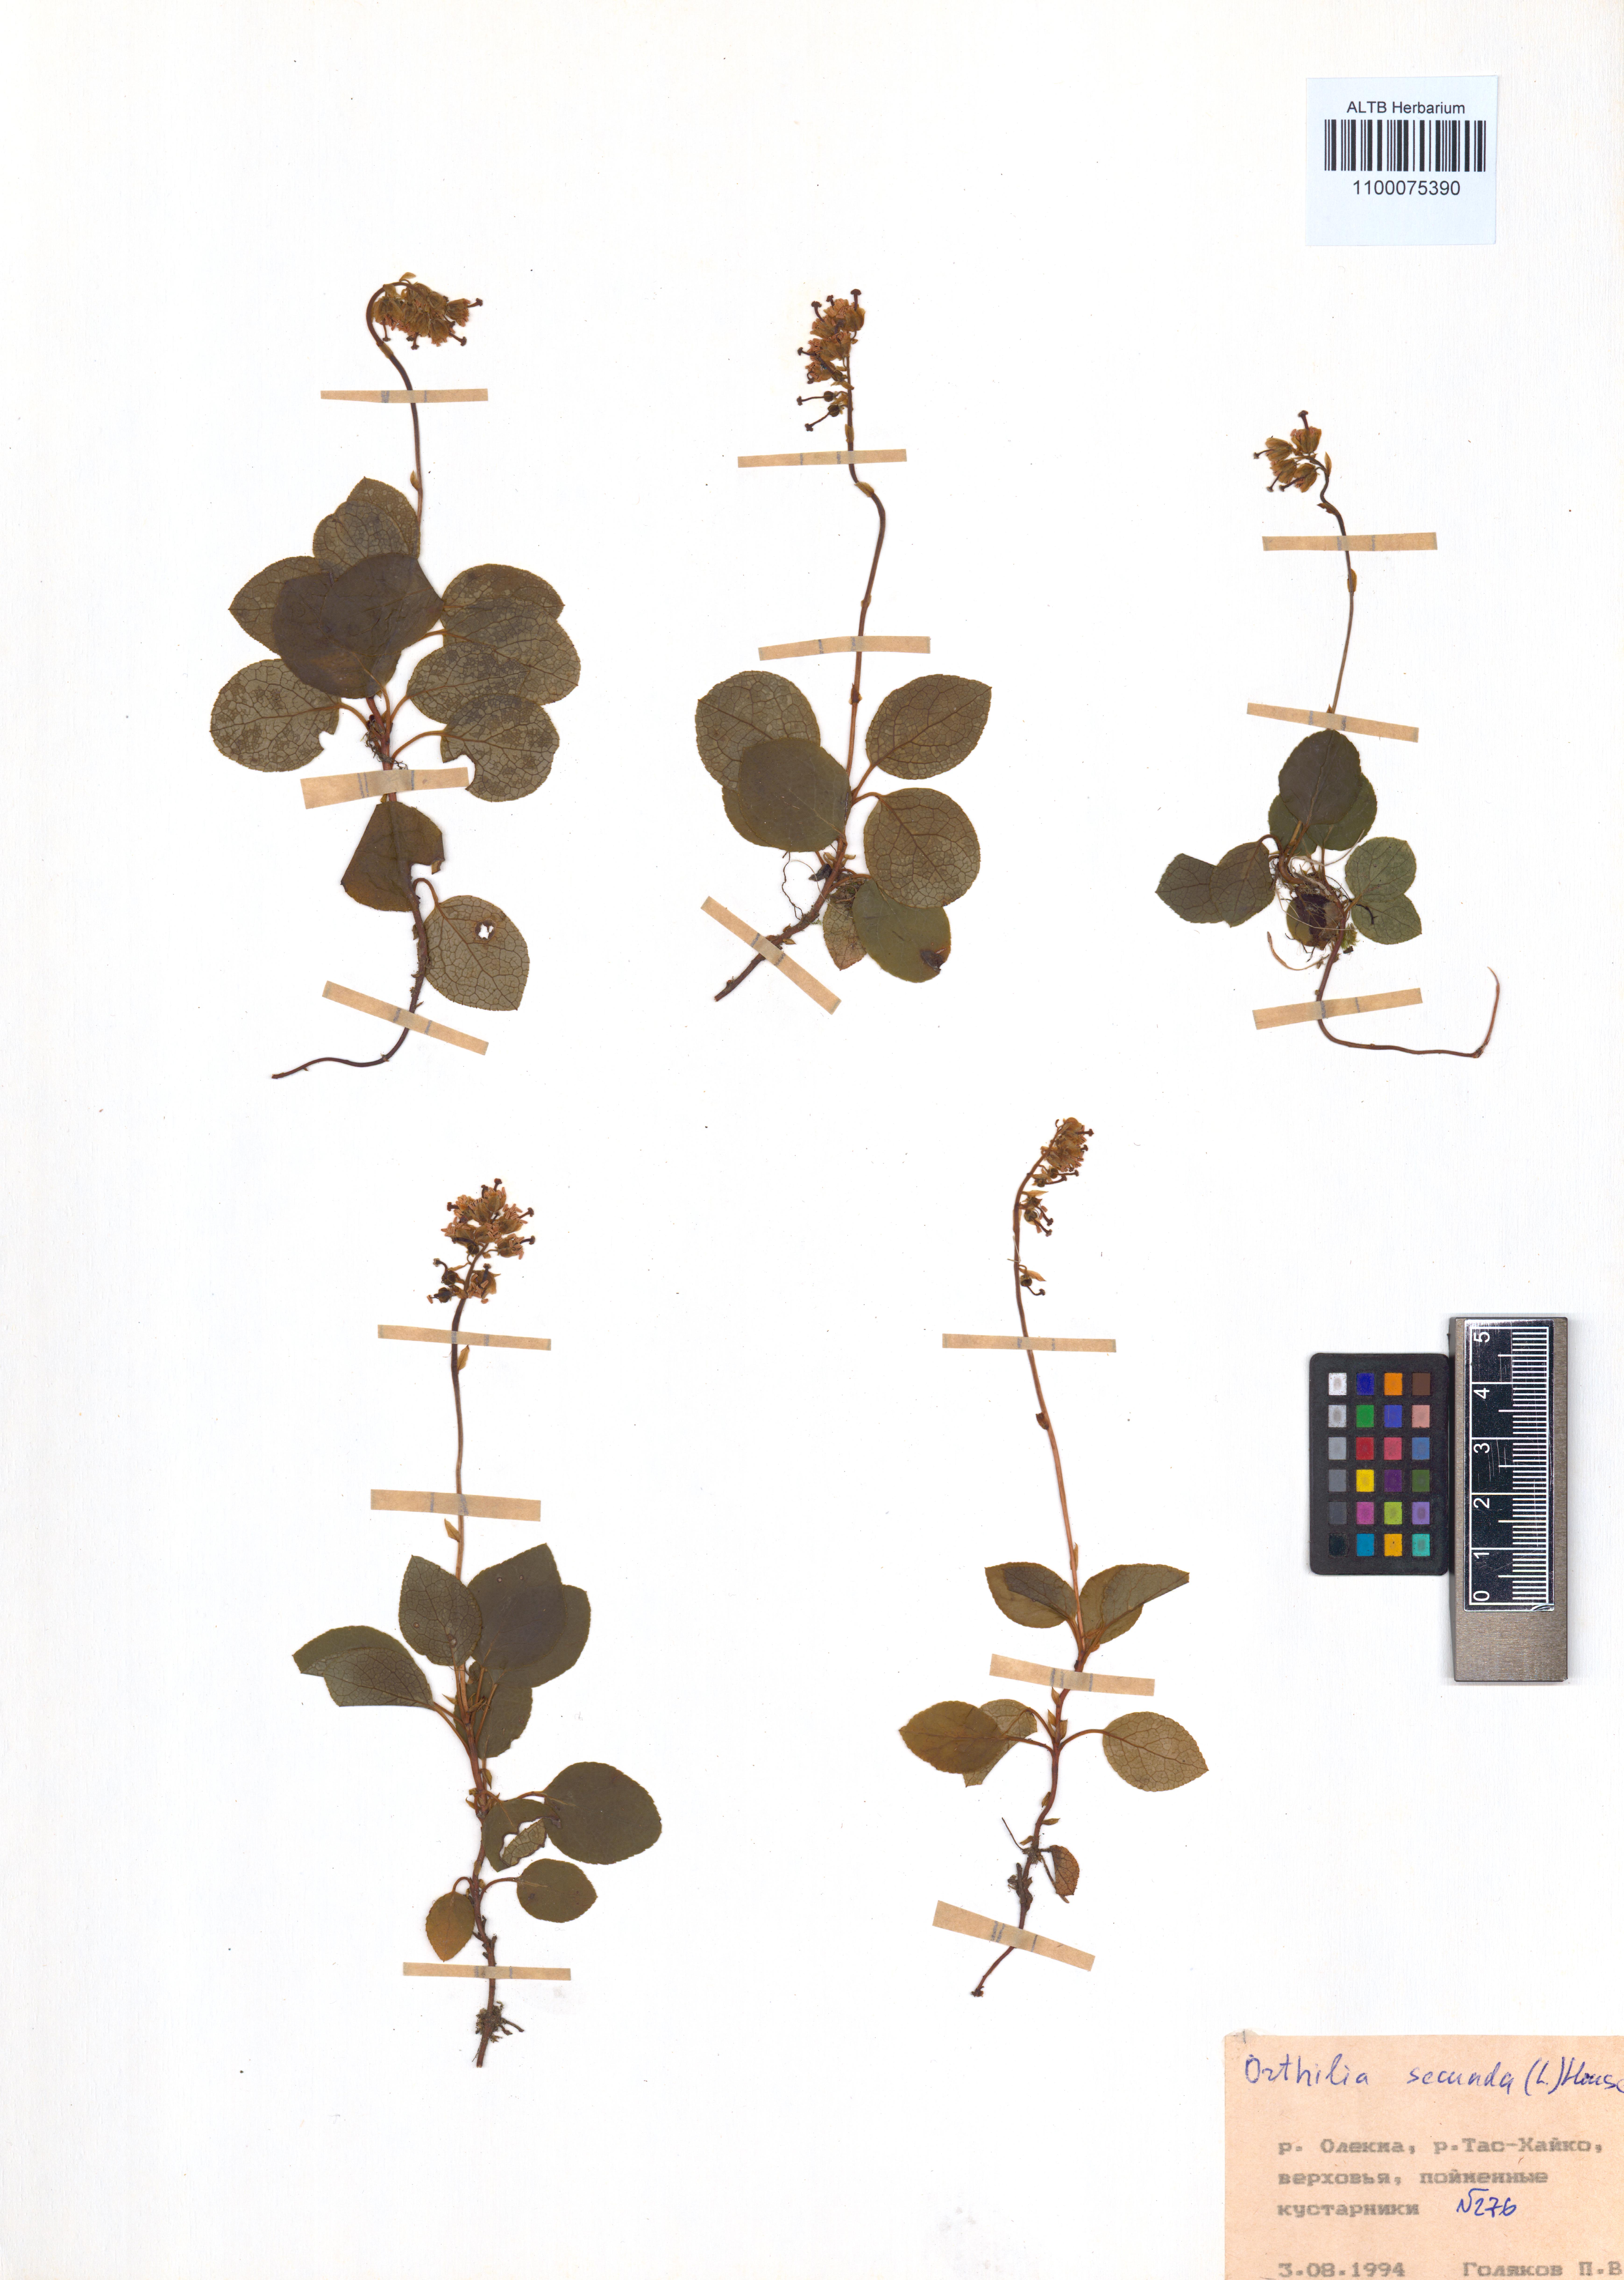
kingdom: Plantae
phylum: Tracheophyta
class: Magnoliopsida
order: Ericales
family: Ericaceae
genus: Orthilia
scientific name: Orthilia secunda
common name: One-sided orthilia
